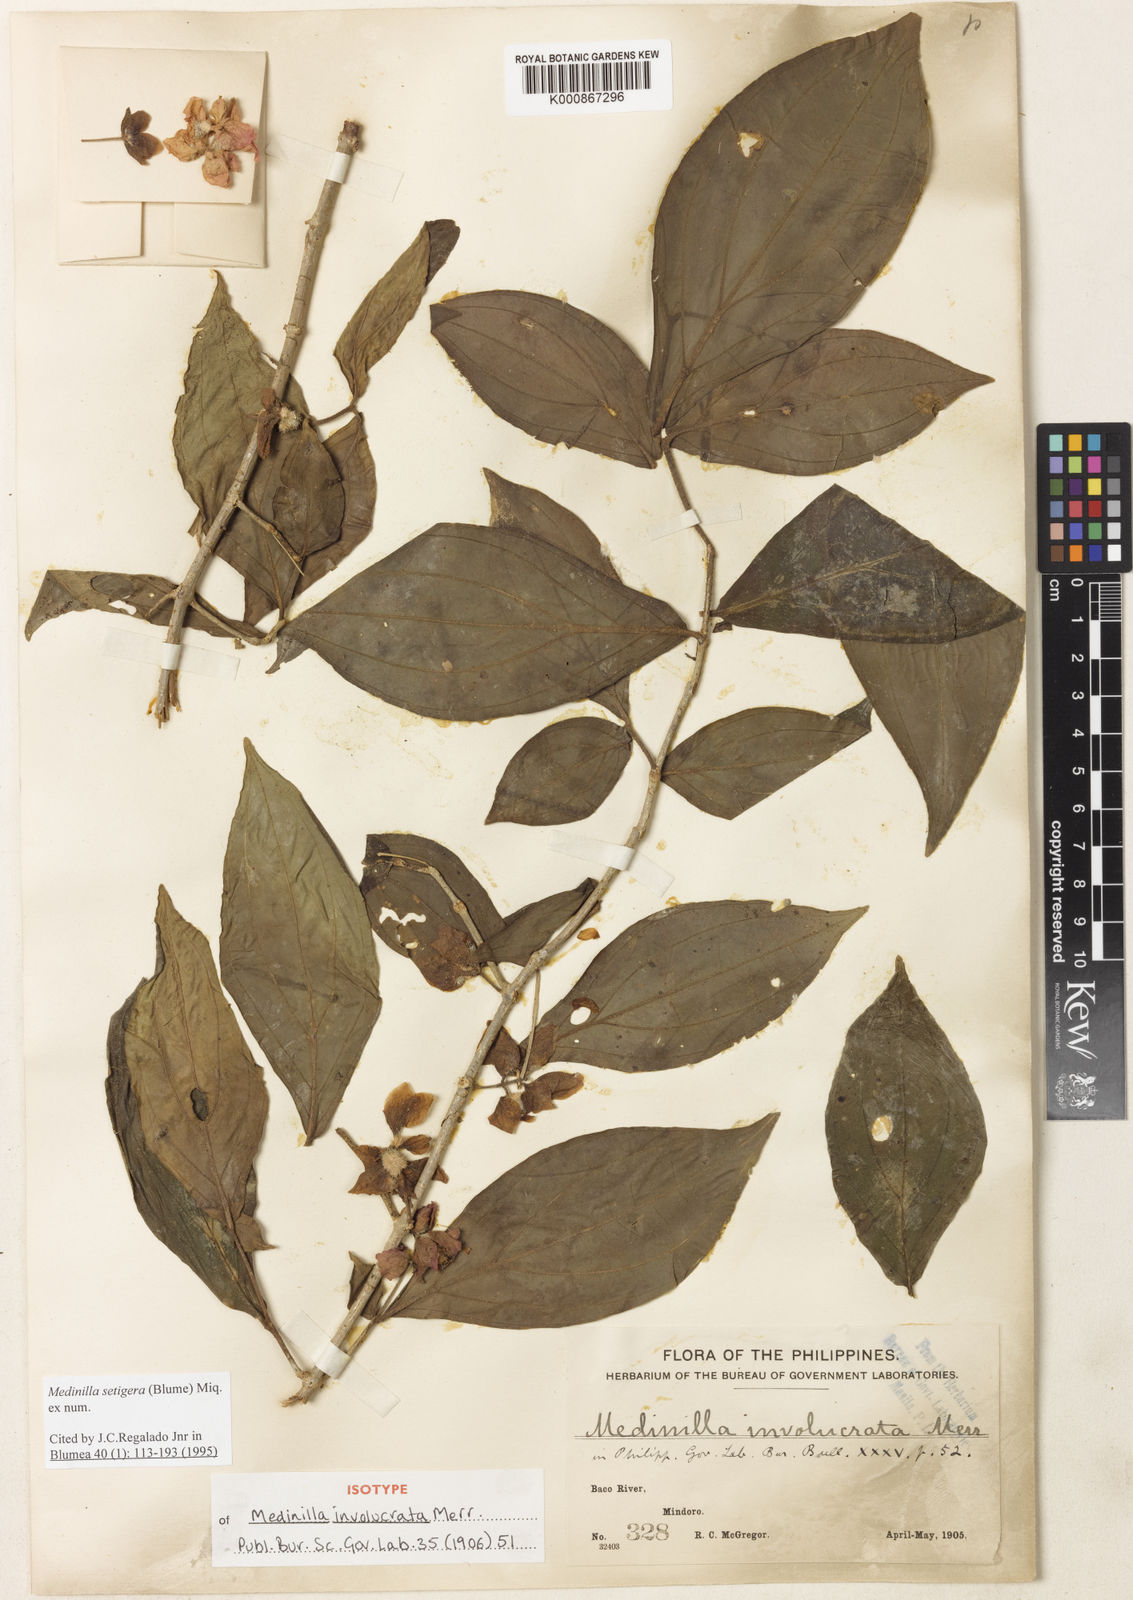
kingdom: Plantae
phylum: Tracheophyta
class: Magnoliopsida
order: Myrtales
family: Melastomataceae
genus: Medinilla
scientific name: Medinilla setigera
